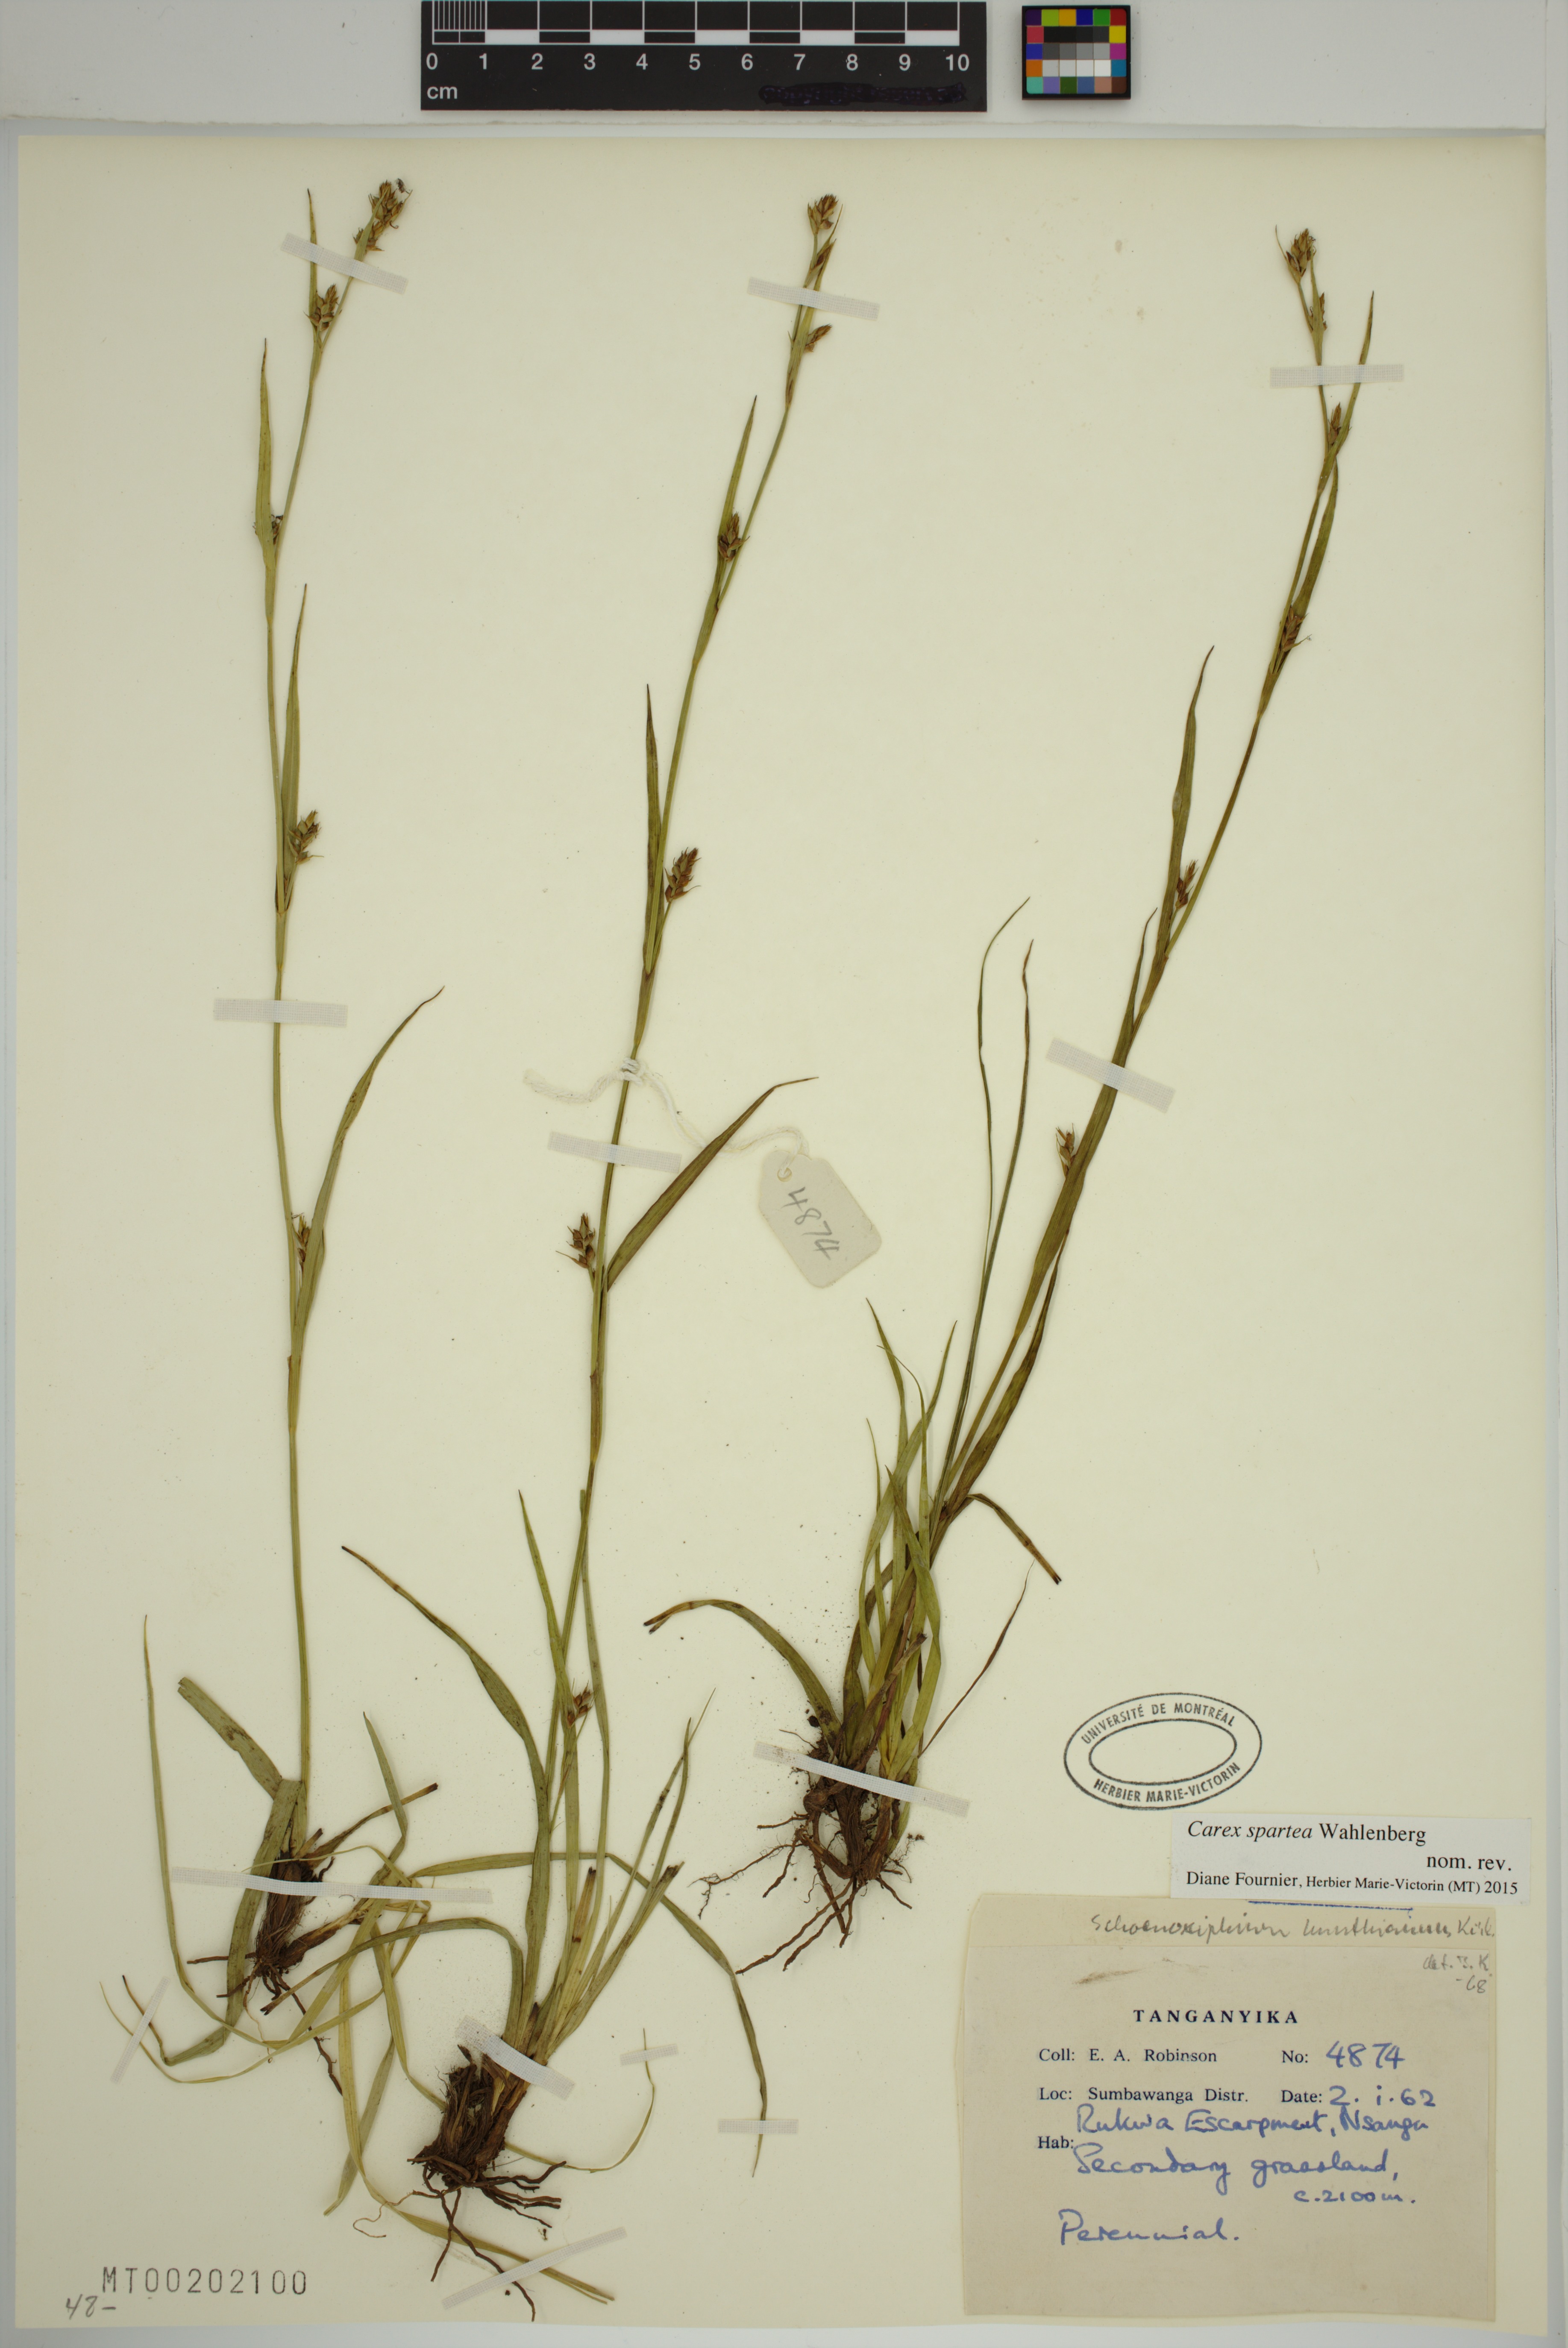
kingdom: Plantae
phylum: Tracheophyta
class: Liliopsida
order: Poales
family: Cyperaceae
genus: Carex
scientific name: Carex spartea
